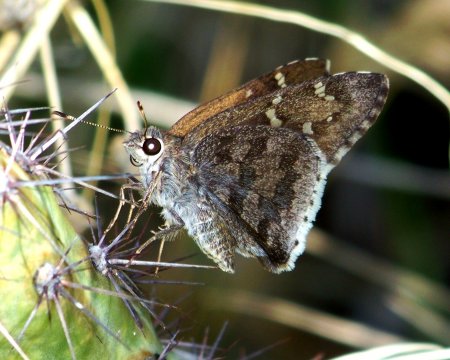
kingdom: Animalia
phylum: Arthropoda
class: Insecta
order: Lepidoptera
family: Hesperiidae
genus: Cogia
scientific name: Cogia hippalus
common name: Acacia Skipper
